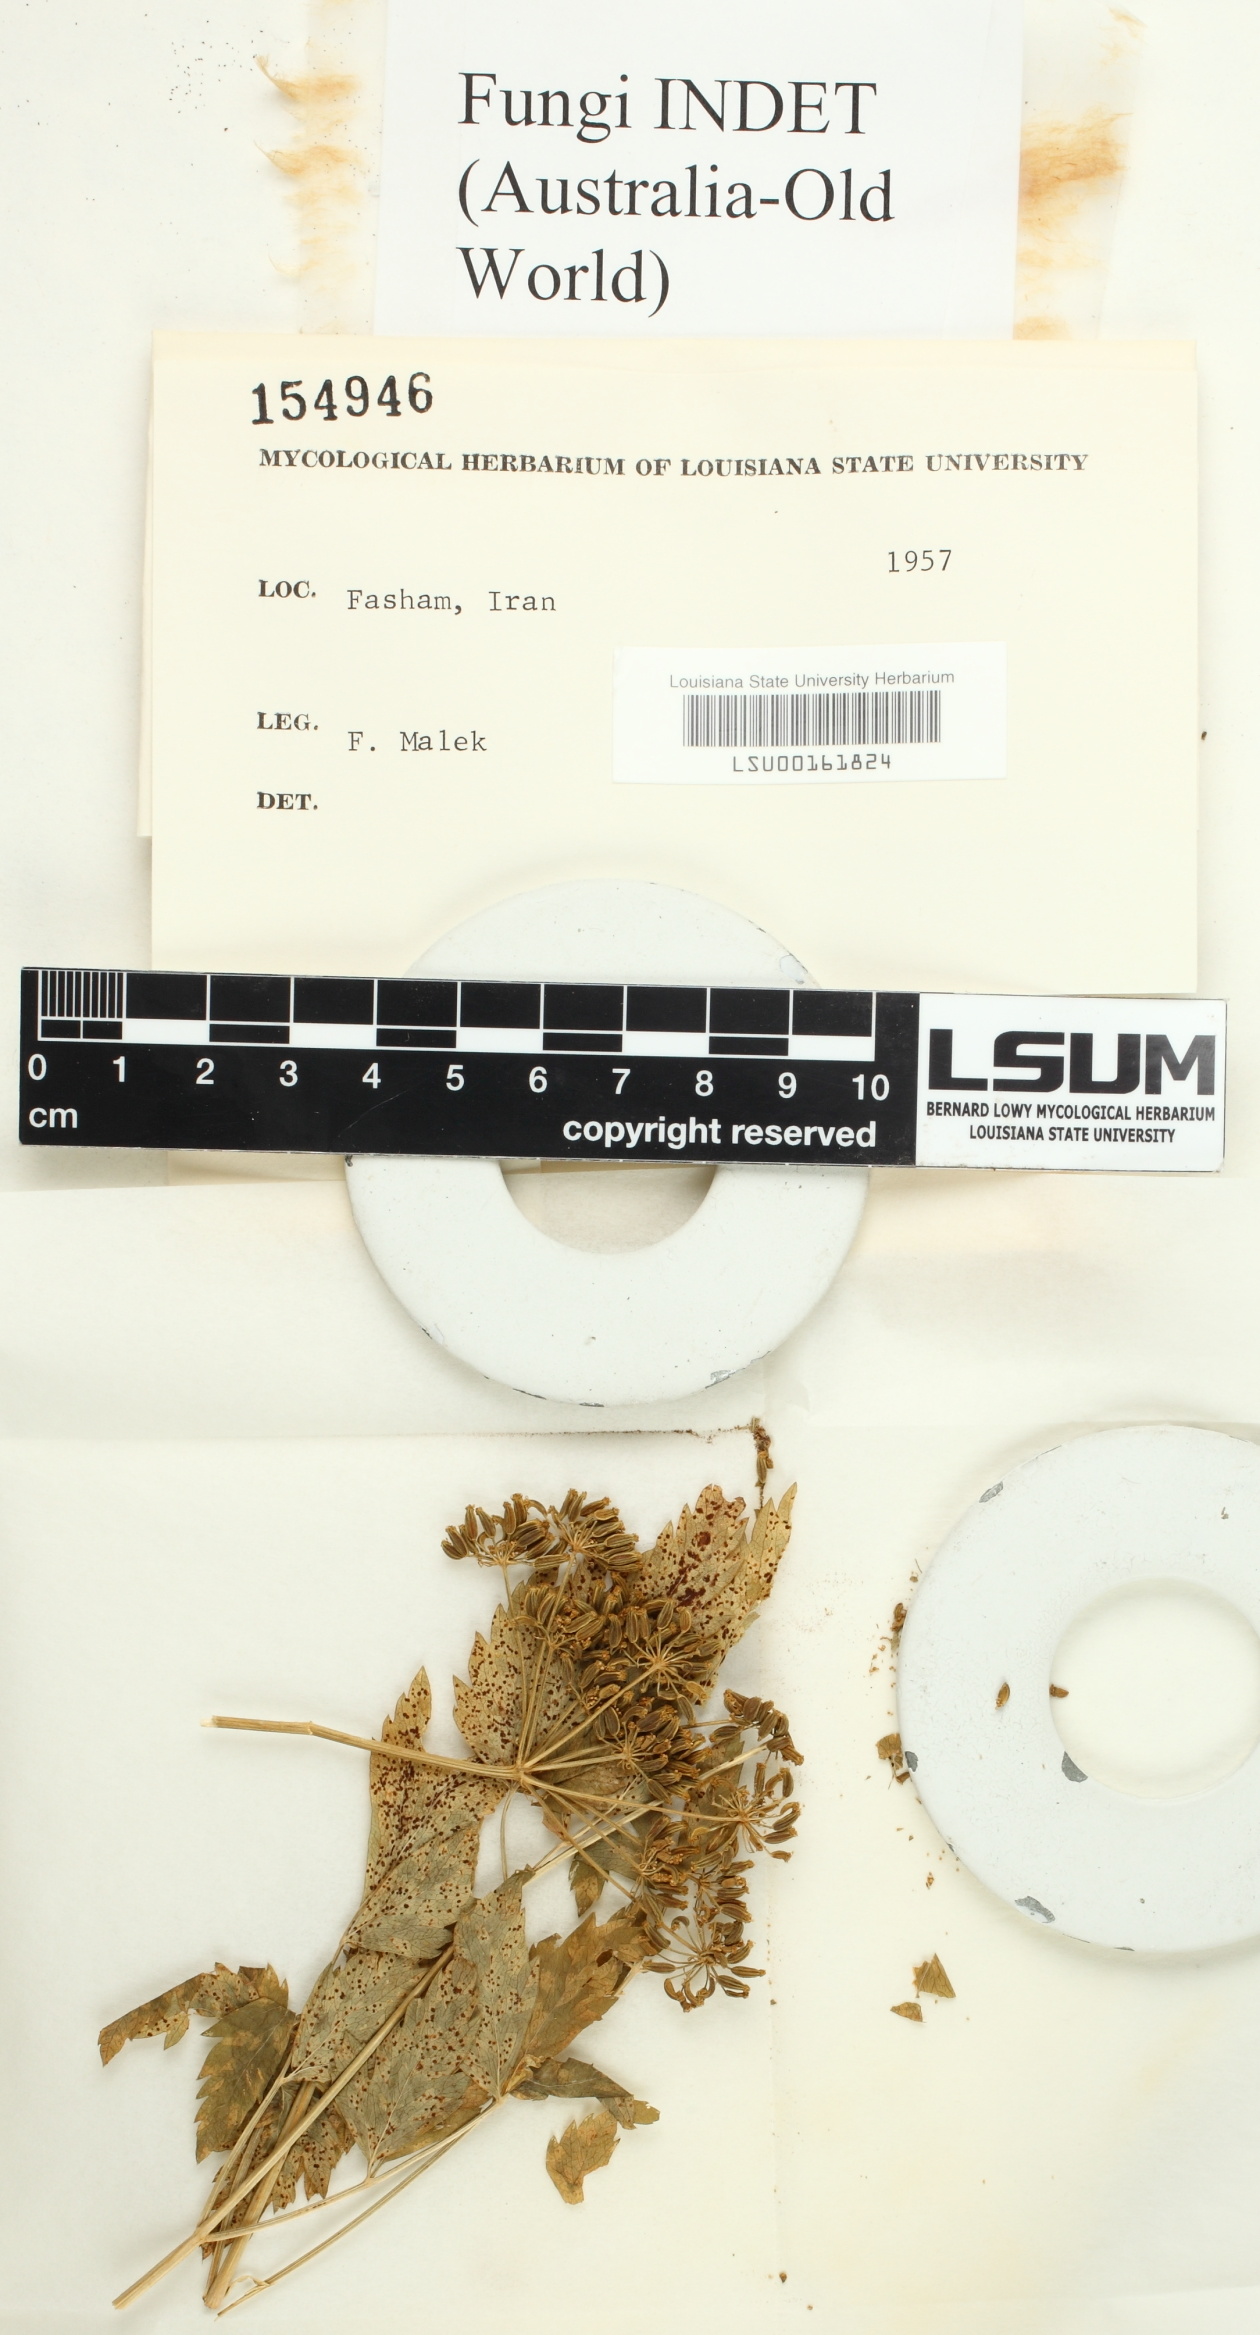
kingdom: Fungi
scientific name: Fungi
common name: Fungi
